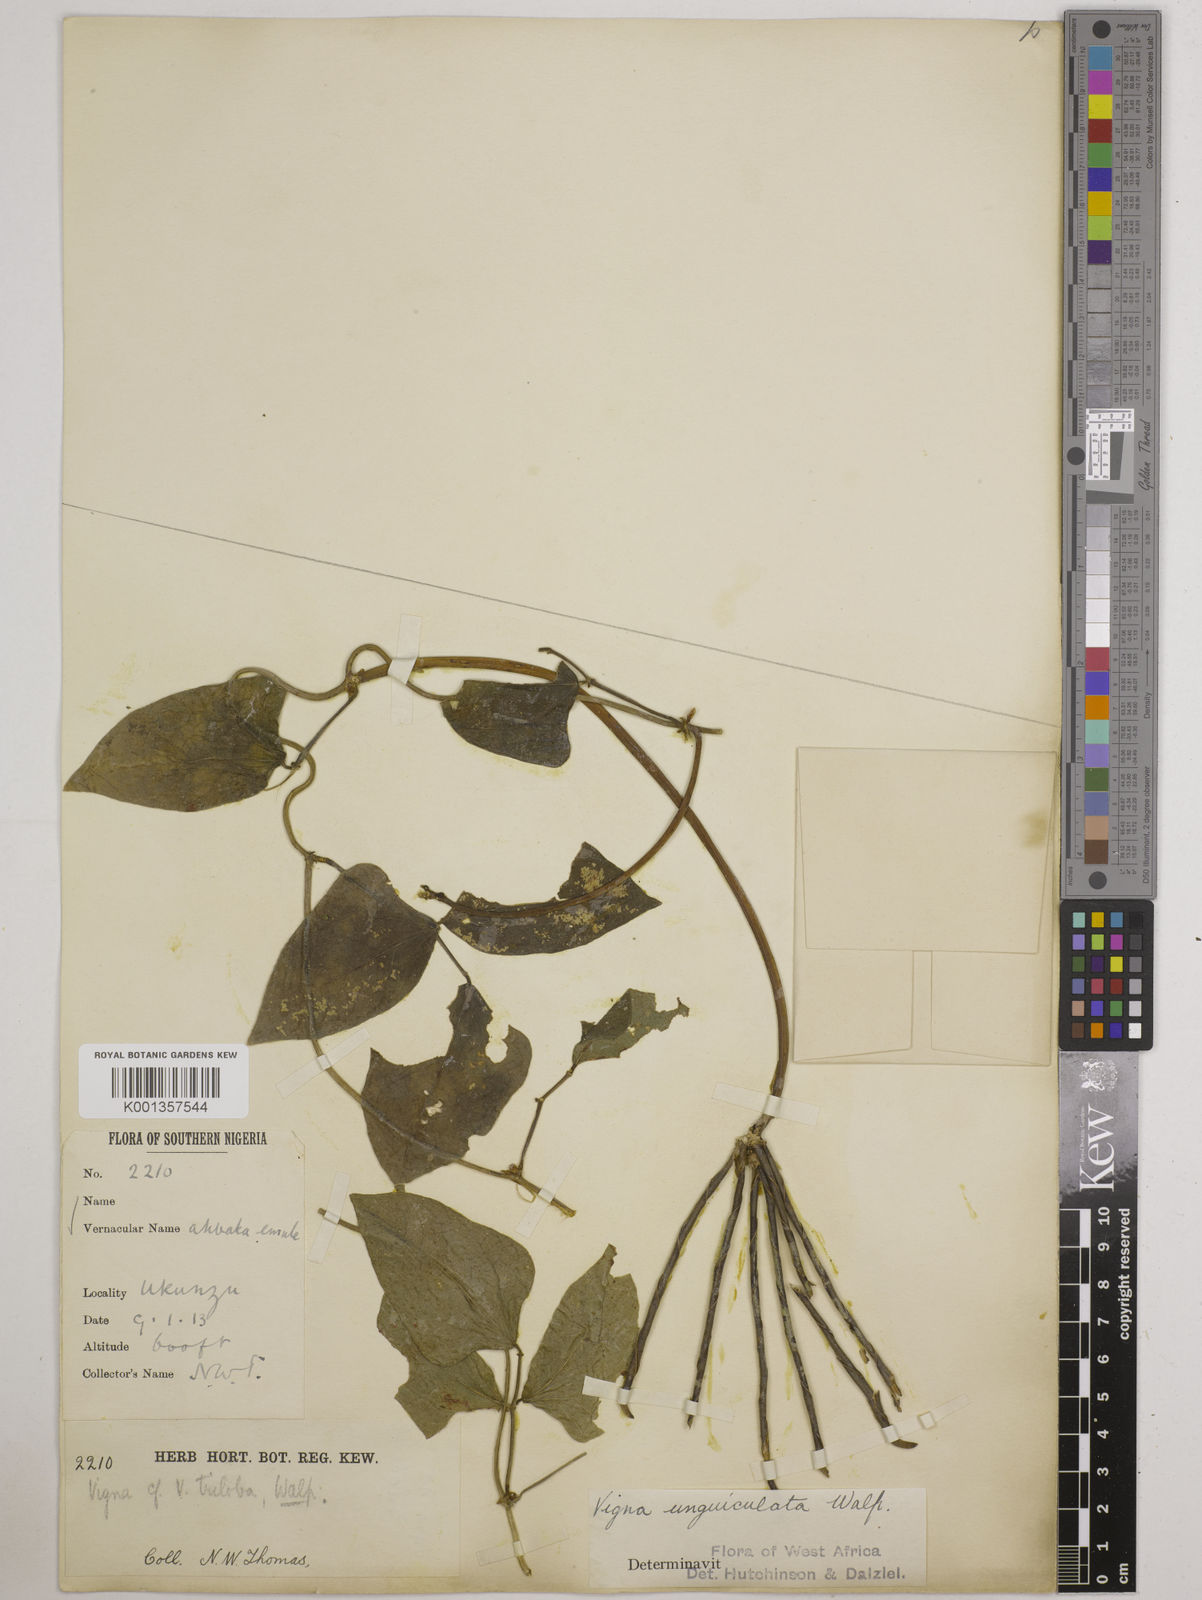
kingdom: Plantae
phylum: Tracheophyta
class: Magnoliopsida
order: Fabales
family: Fabaceae
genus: Vigna
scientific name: Vigna
